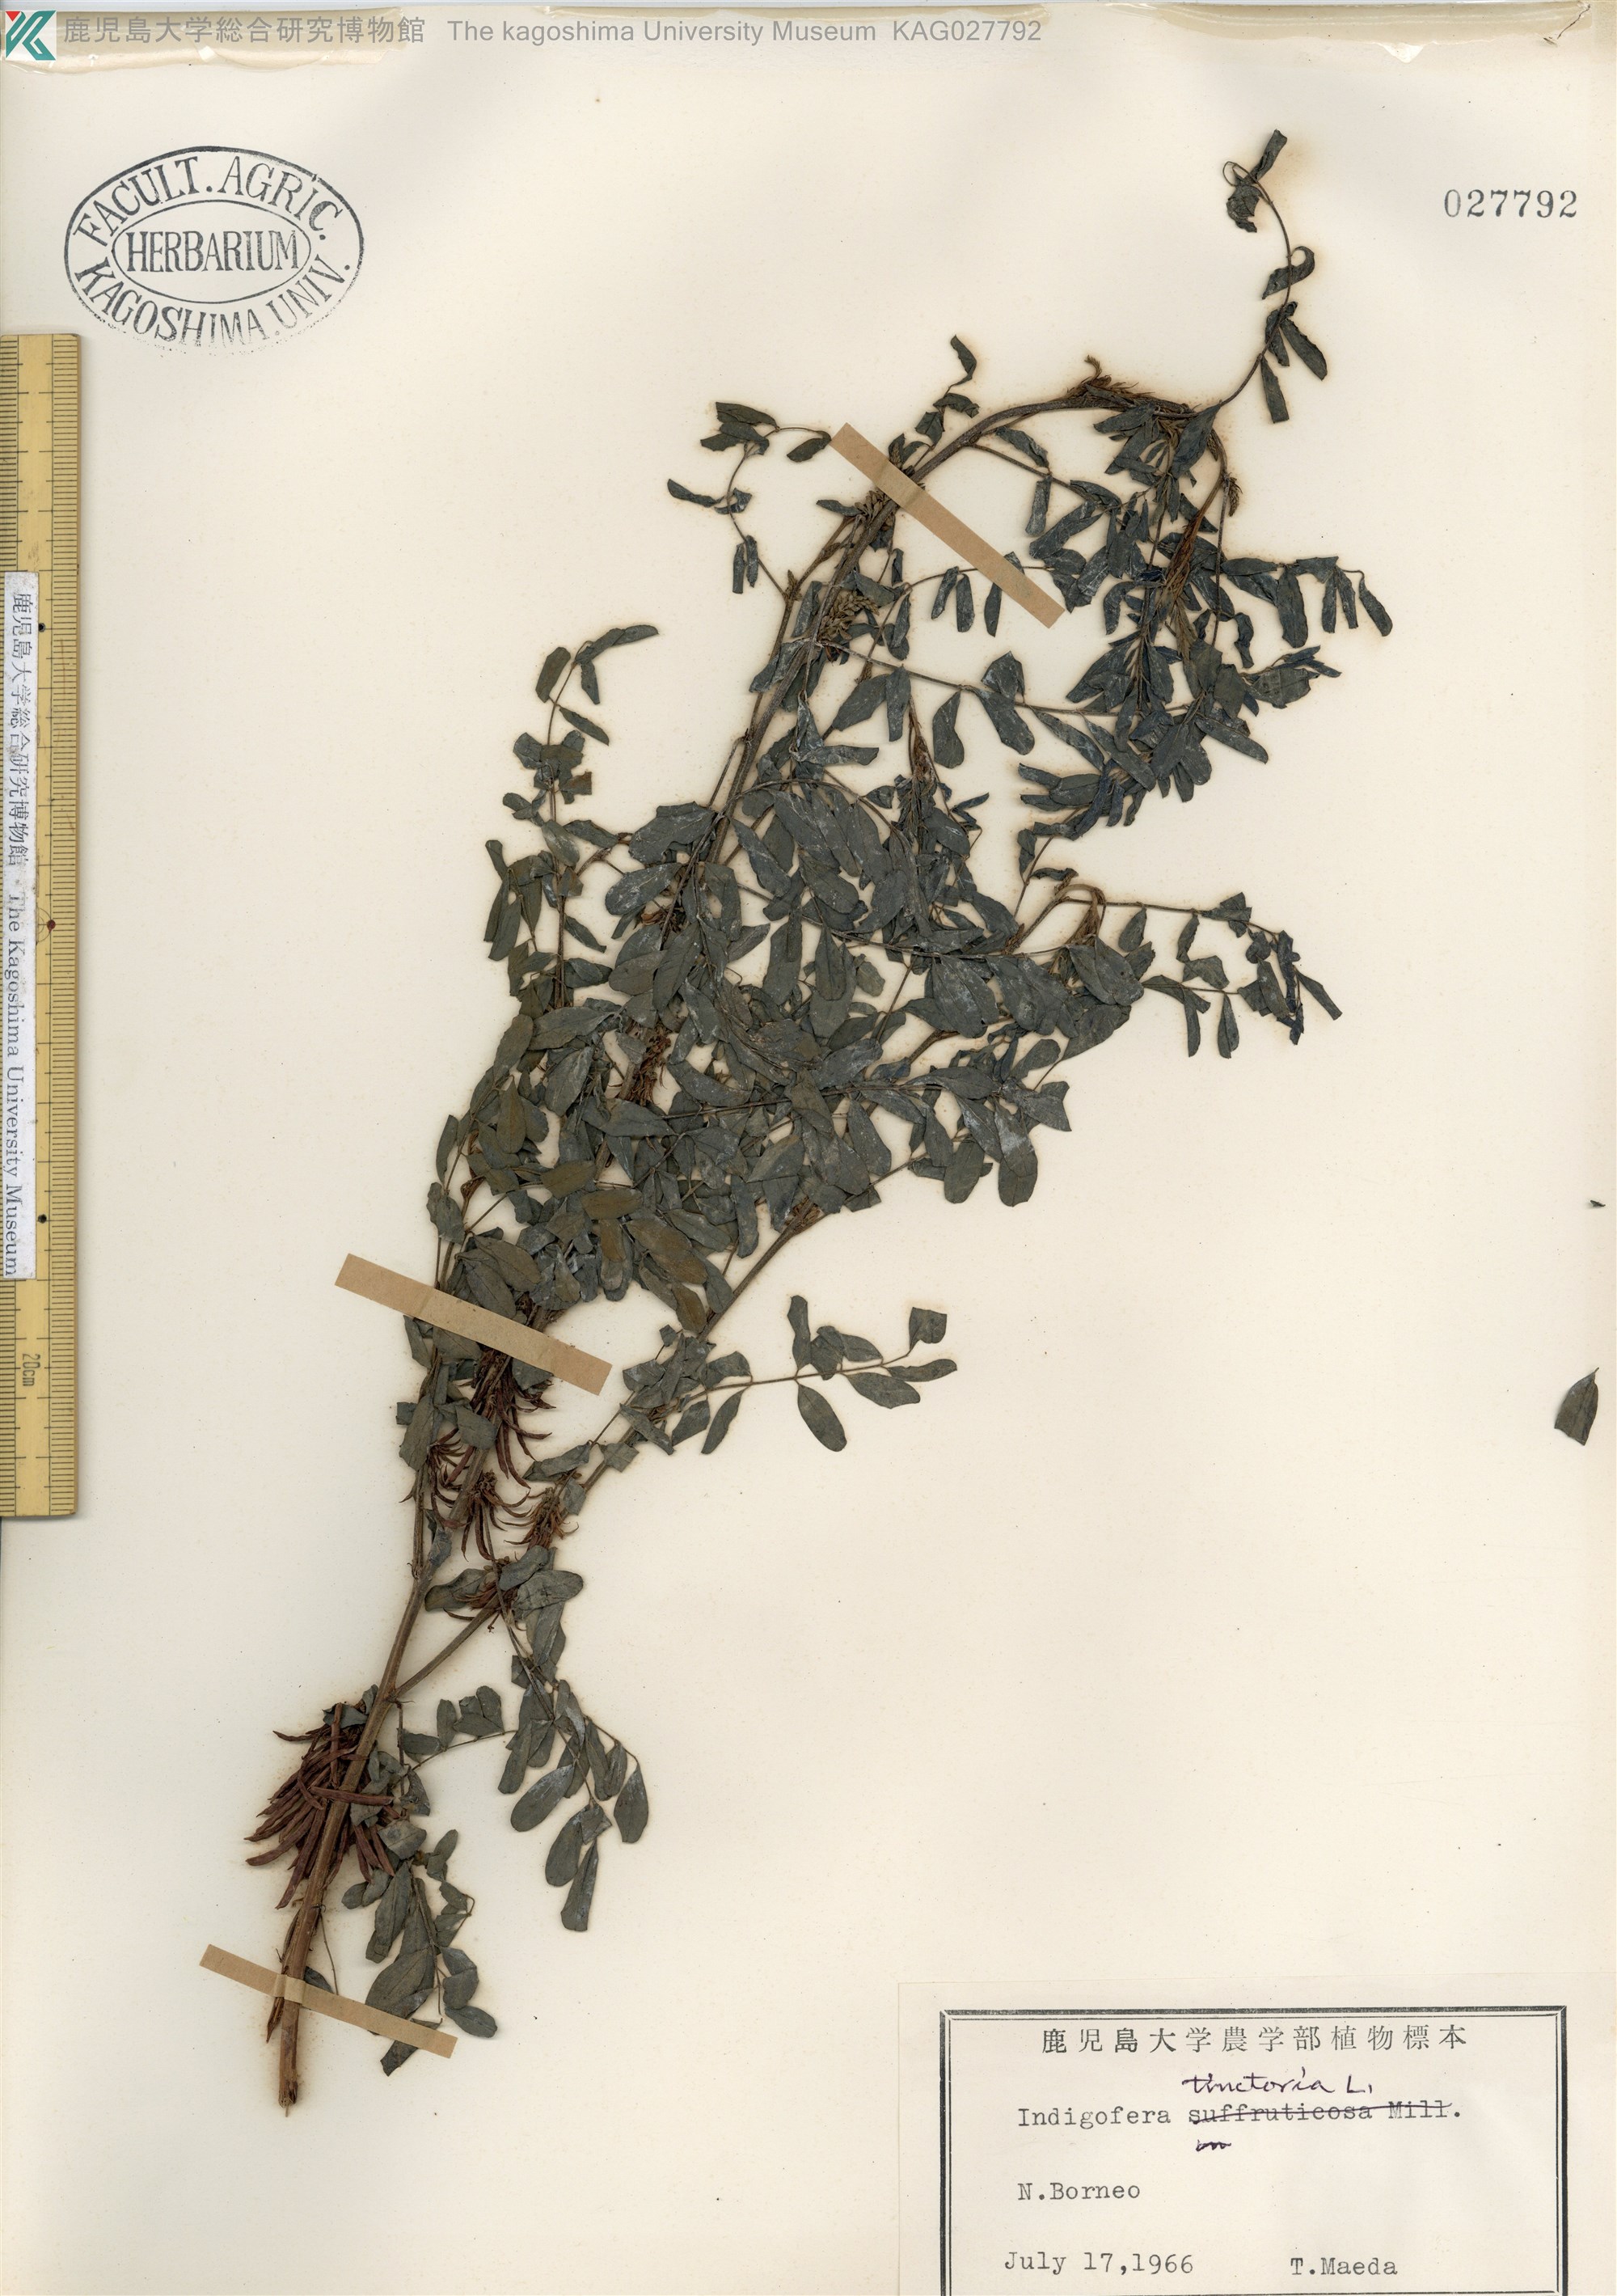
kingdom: Plantae
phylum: Tracheophyta
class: Magnoliopsida
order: Fabales
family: Fabaceae
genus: Indigofera
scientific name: Indigofera tinctoria
